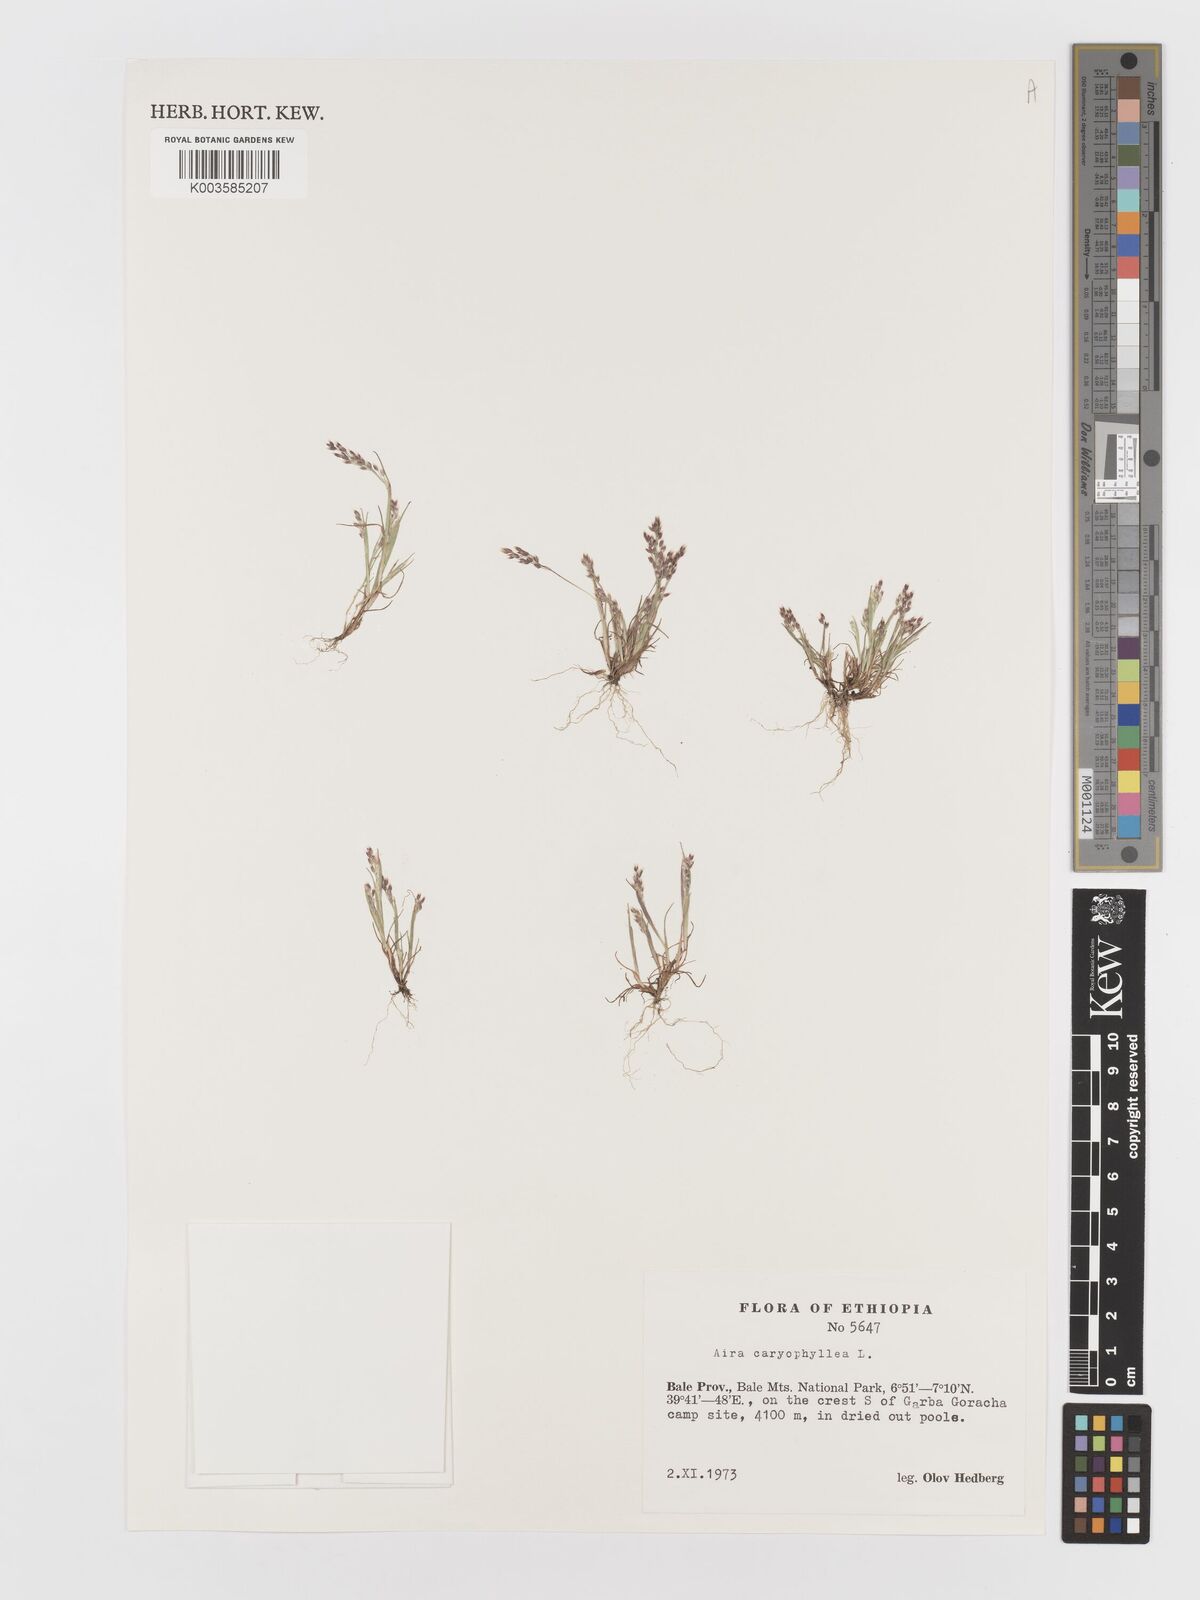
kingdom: Plantae
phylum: Tracheophyta
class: Liliopsida
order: Poales
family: Poaceae
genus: Aira
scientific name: Aira caryophyllea
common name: Silver hairgrass
